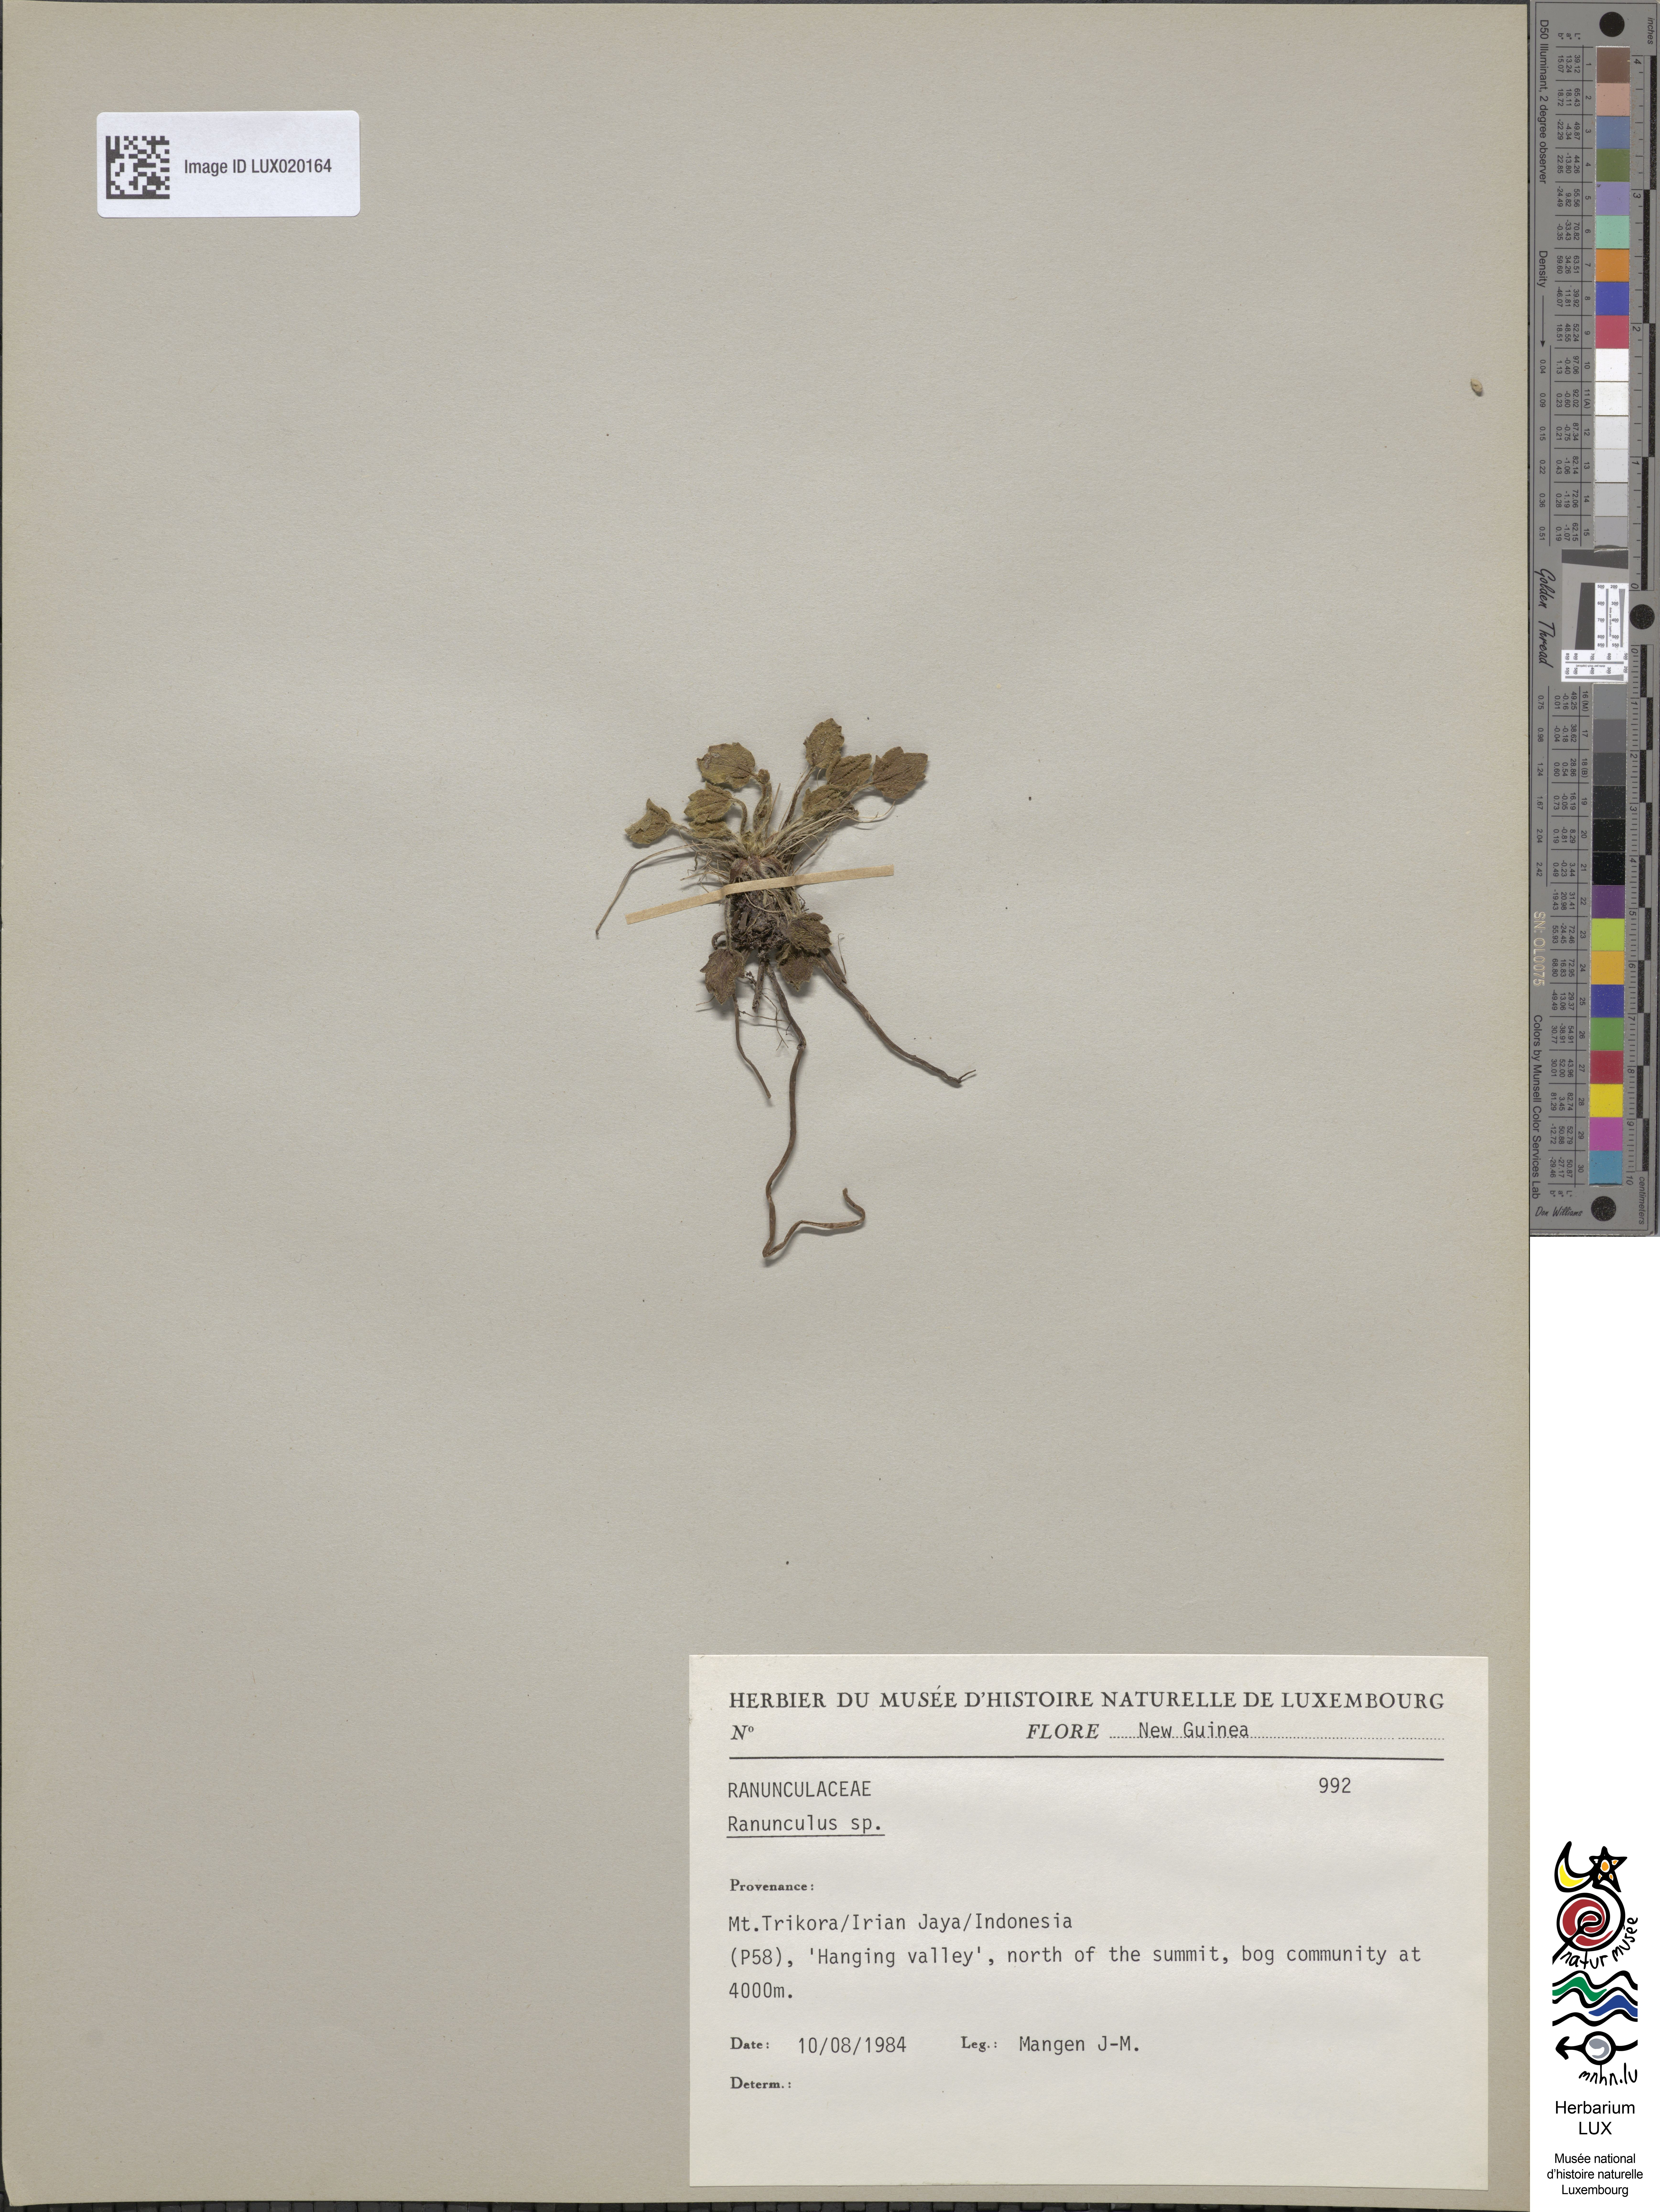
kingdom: Plantae
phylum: Tracheophyta
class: Magnoliopsida
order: Ranunculales
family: Ranunculaceae
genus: Ranunculus
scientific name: Ranunculus
